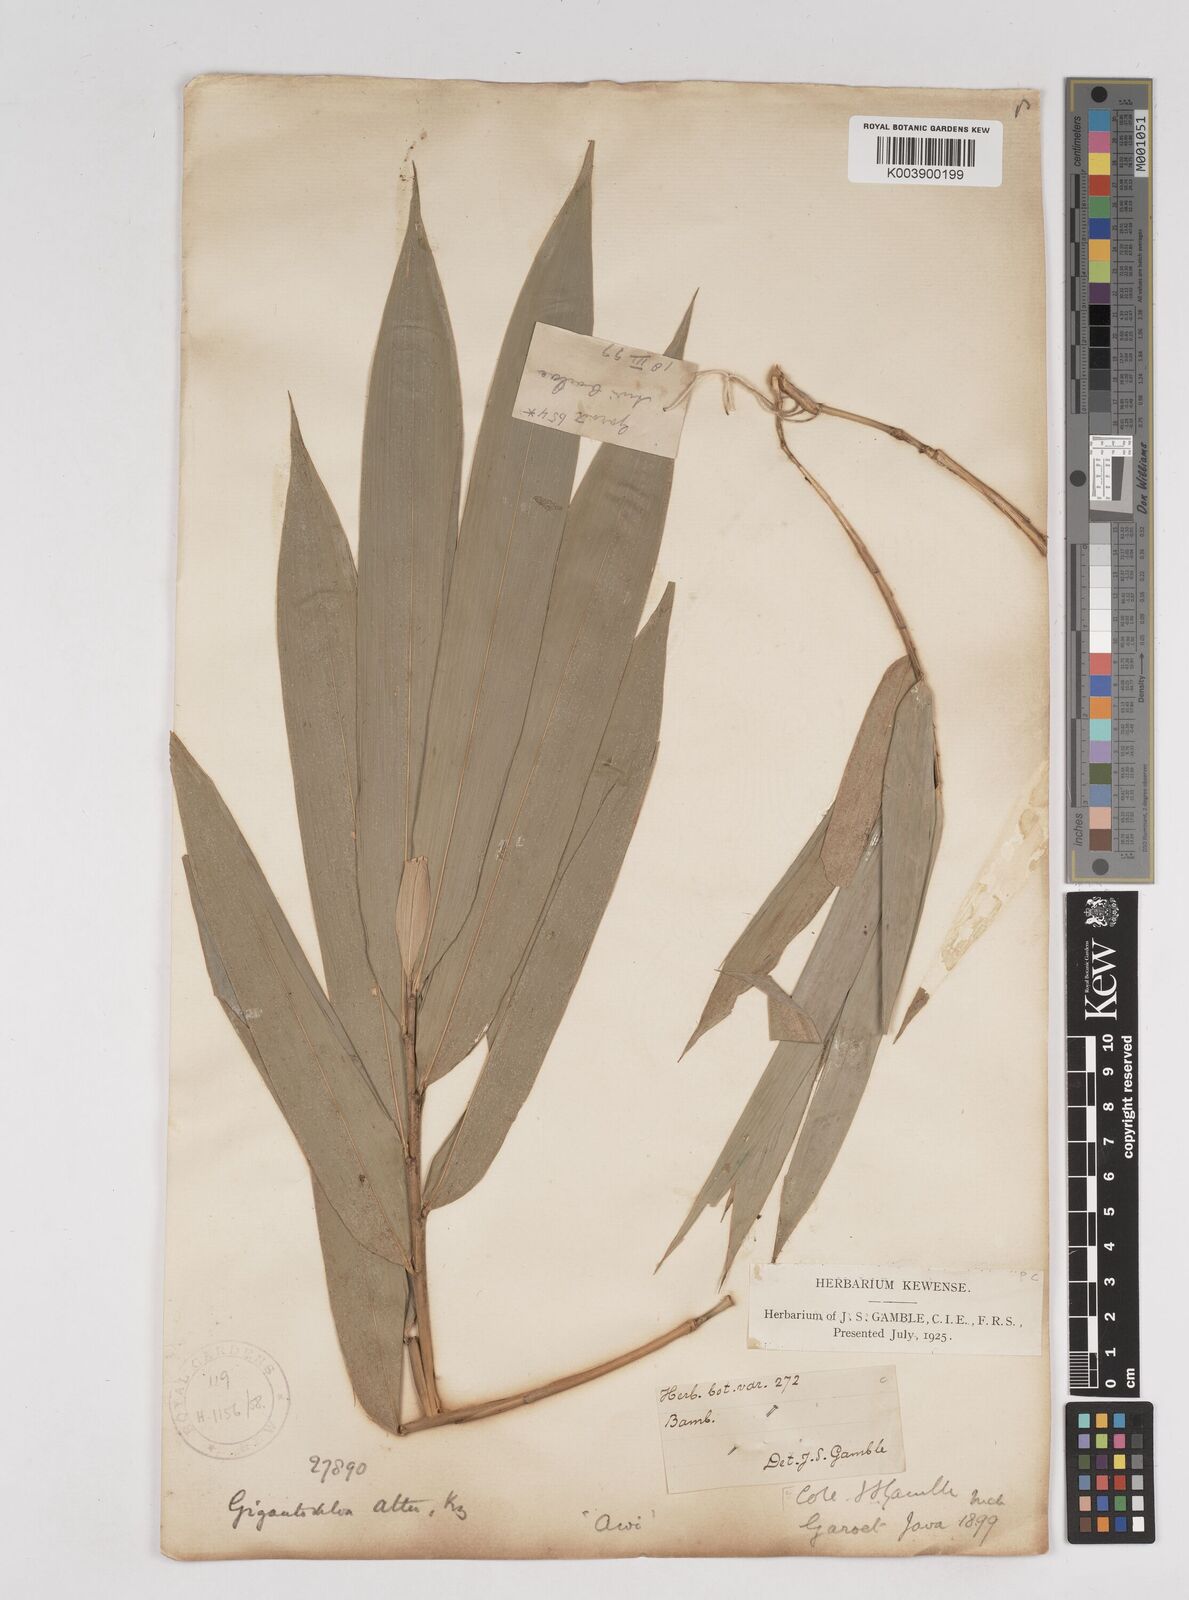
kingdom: Plantae
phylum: Tracheophyta
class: Liliopsida
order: Poales
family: Poaceae
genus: Gigantochloa
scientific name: Gigantochloa atter
